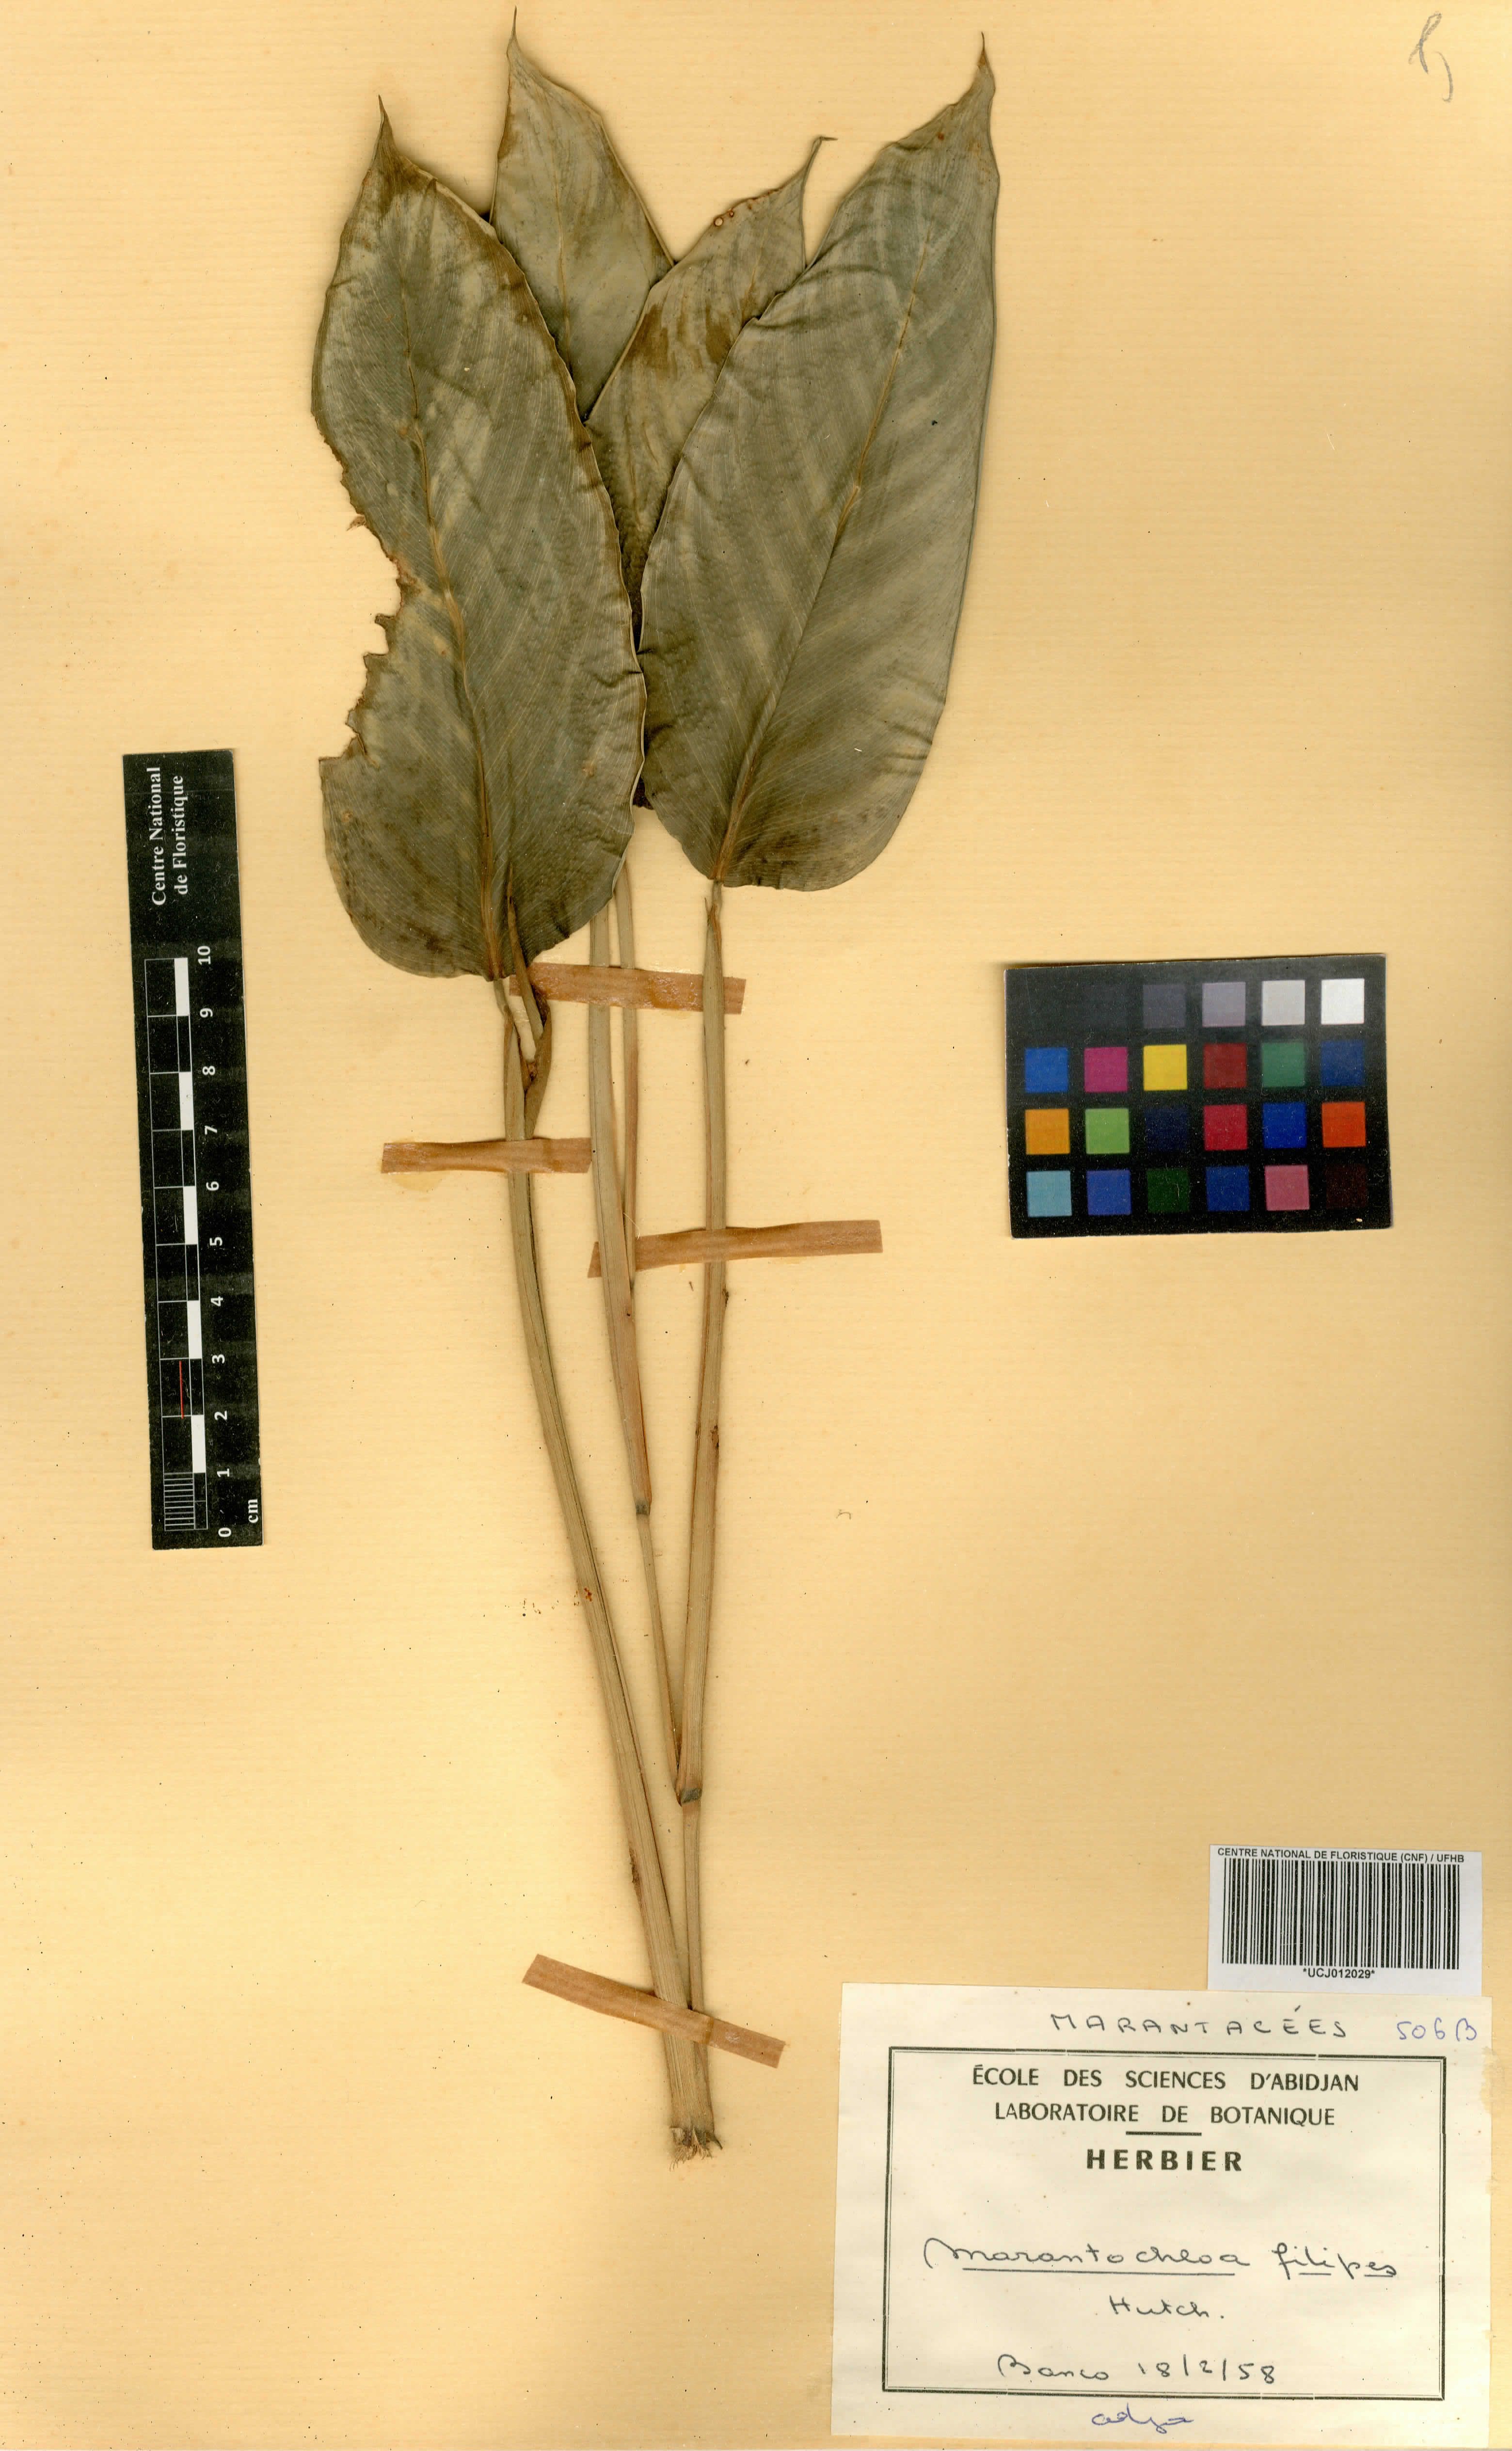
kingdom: Plantae
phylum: Tracheophyta
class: Liliopsida
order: Zingiberales
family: Marantaceae
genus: Marantochloa
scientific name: Marantochloa filipes
